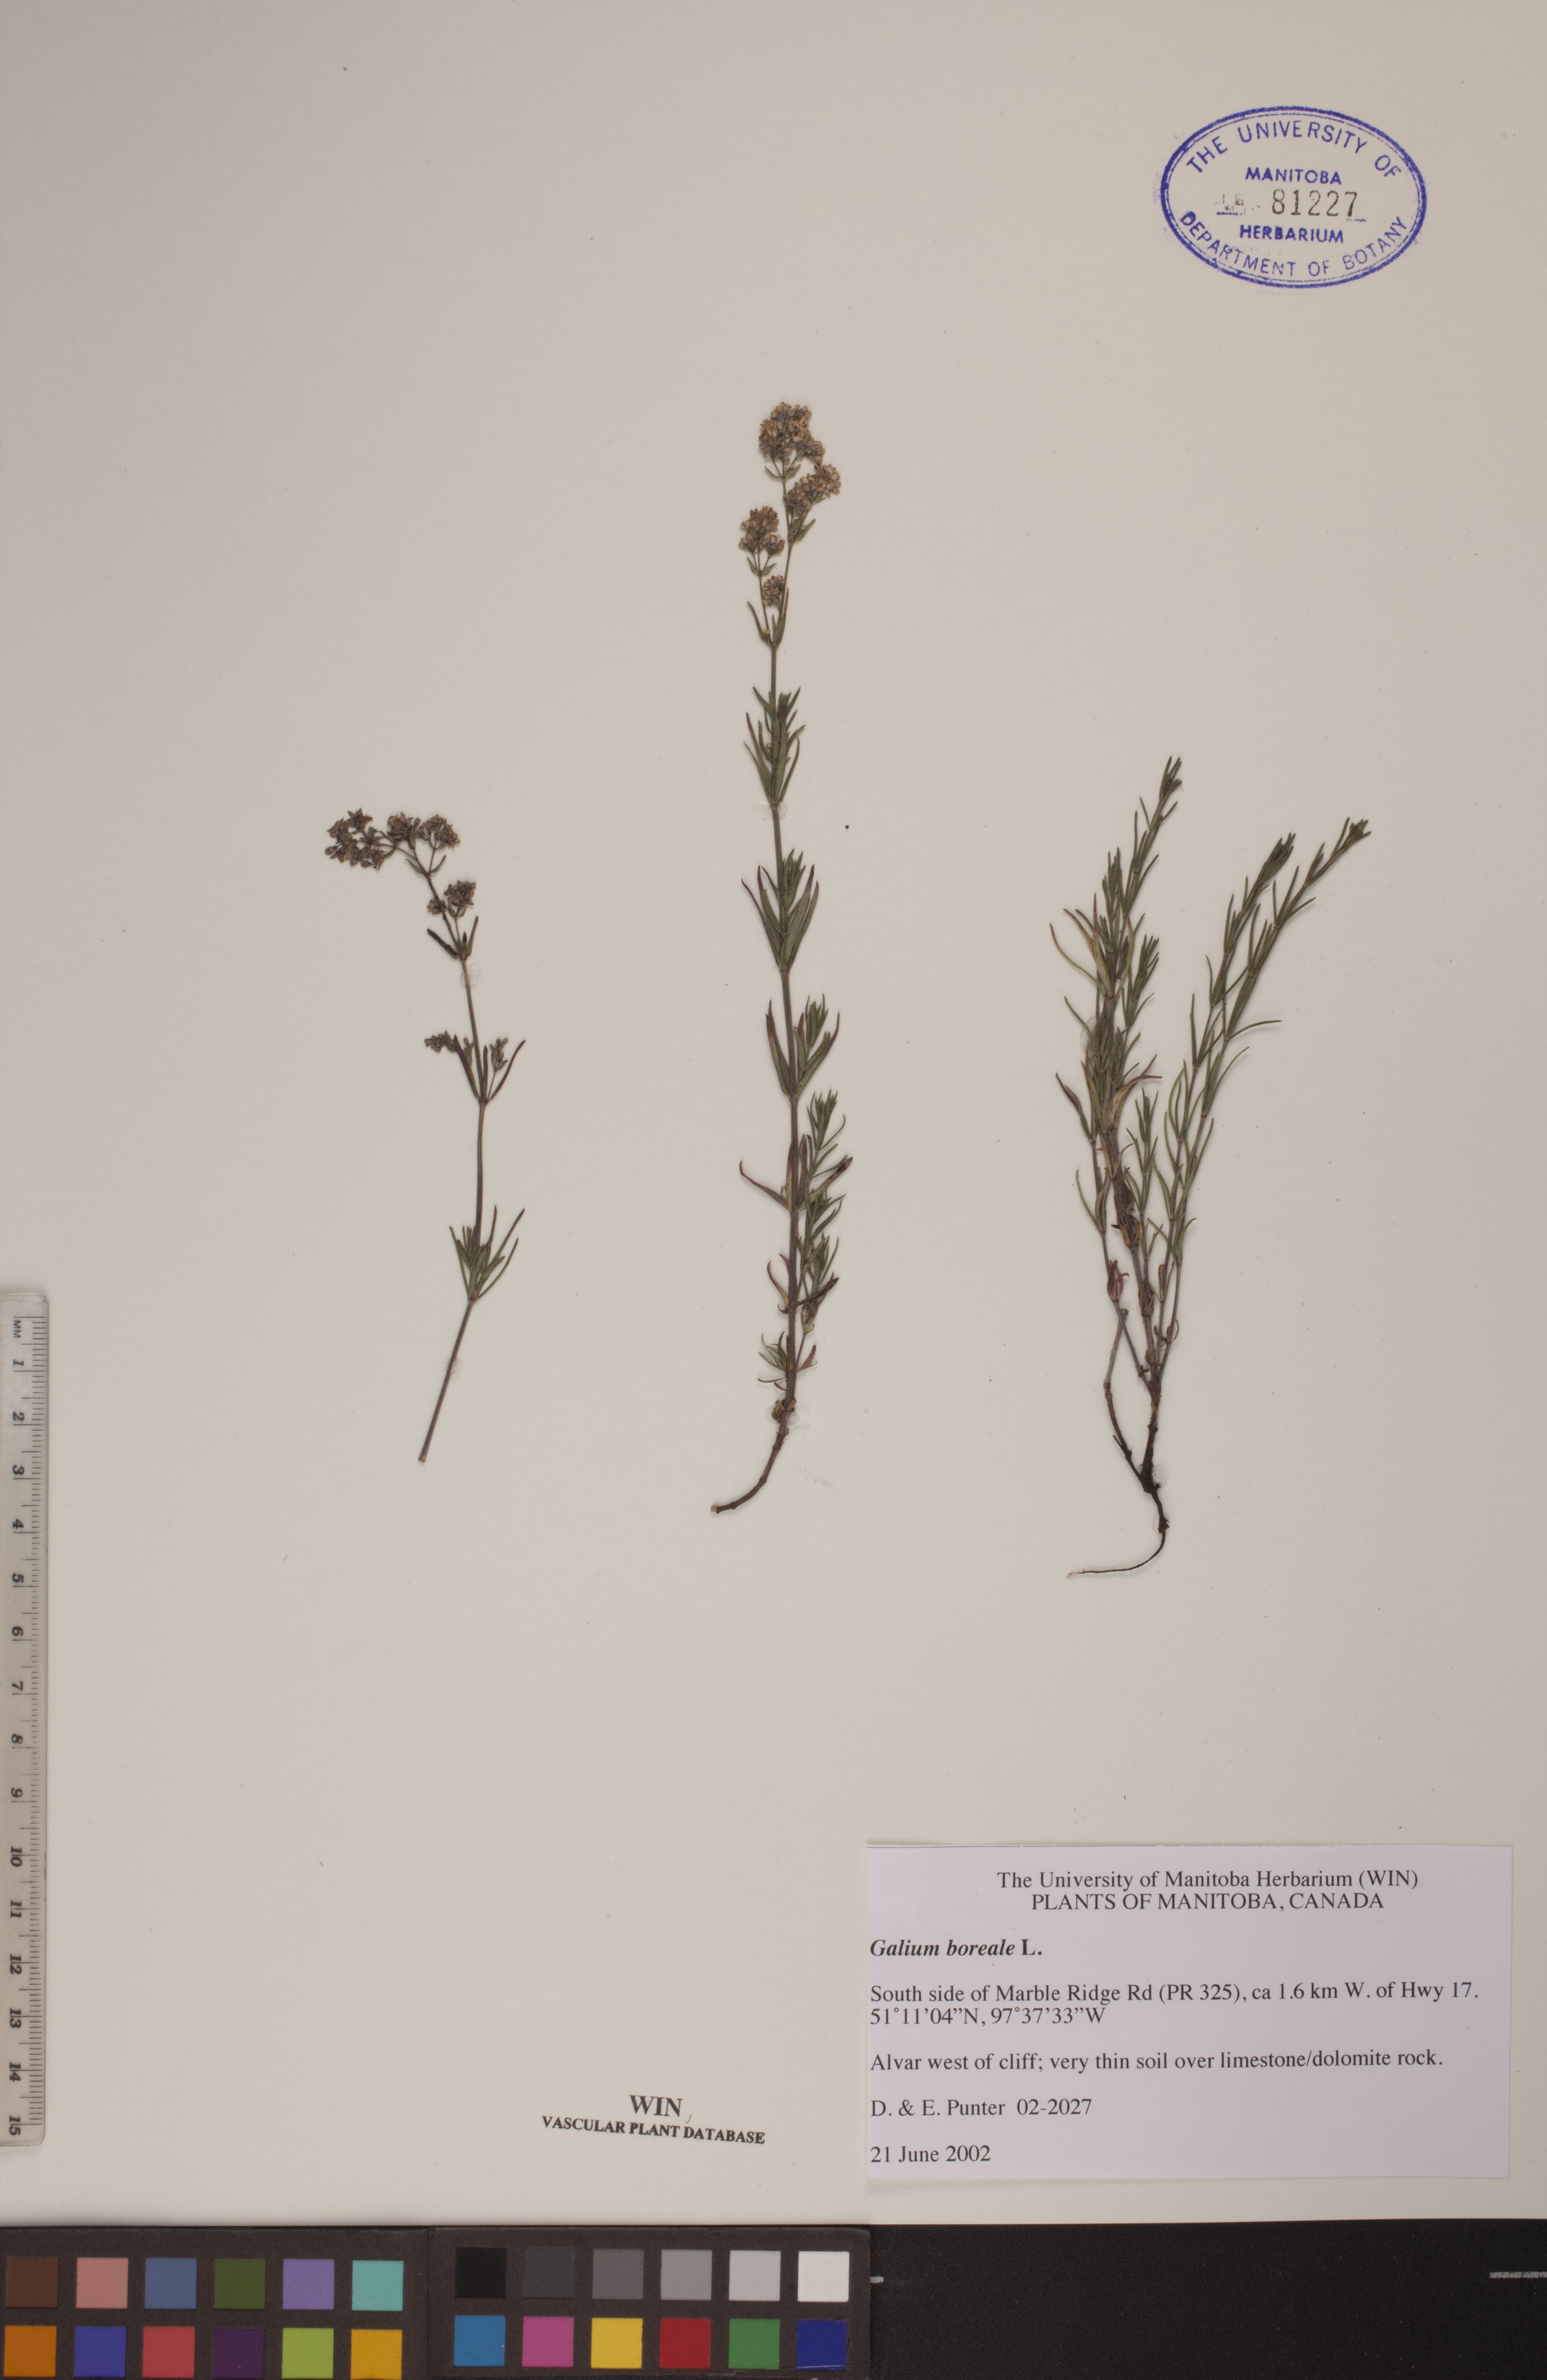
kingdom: Plantae
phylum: Tracheophyta
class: Magnoliopsida
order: Gentianales
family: Rubiaceae
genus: Galium
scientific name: Galium boreale
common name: Northern bedstraw
